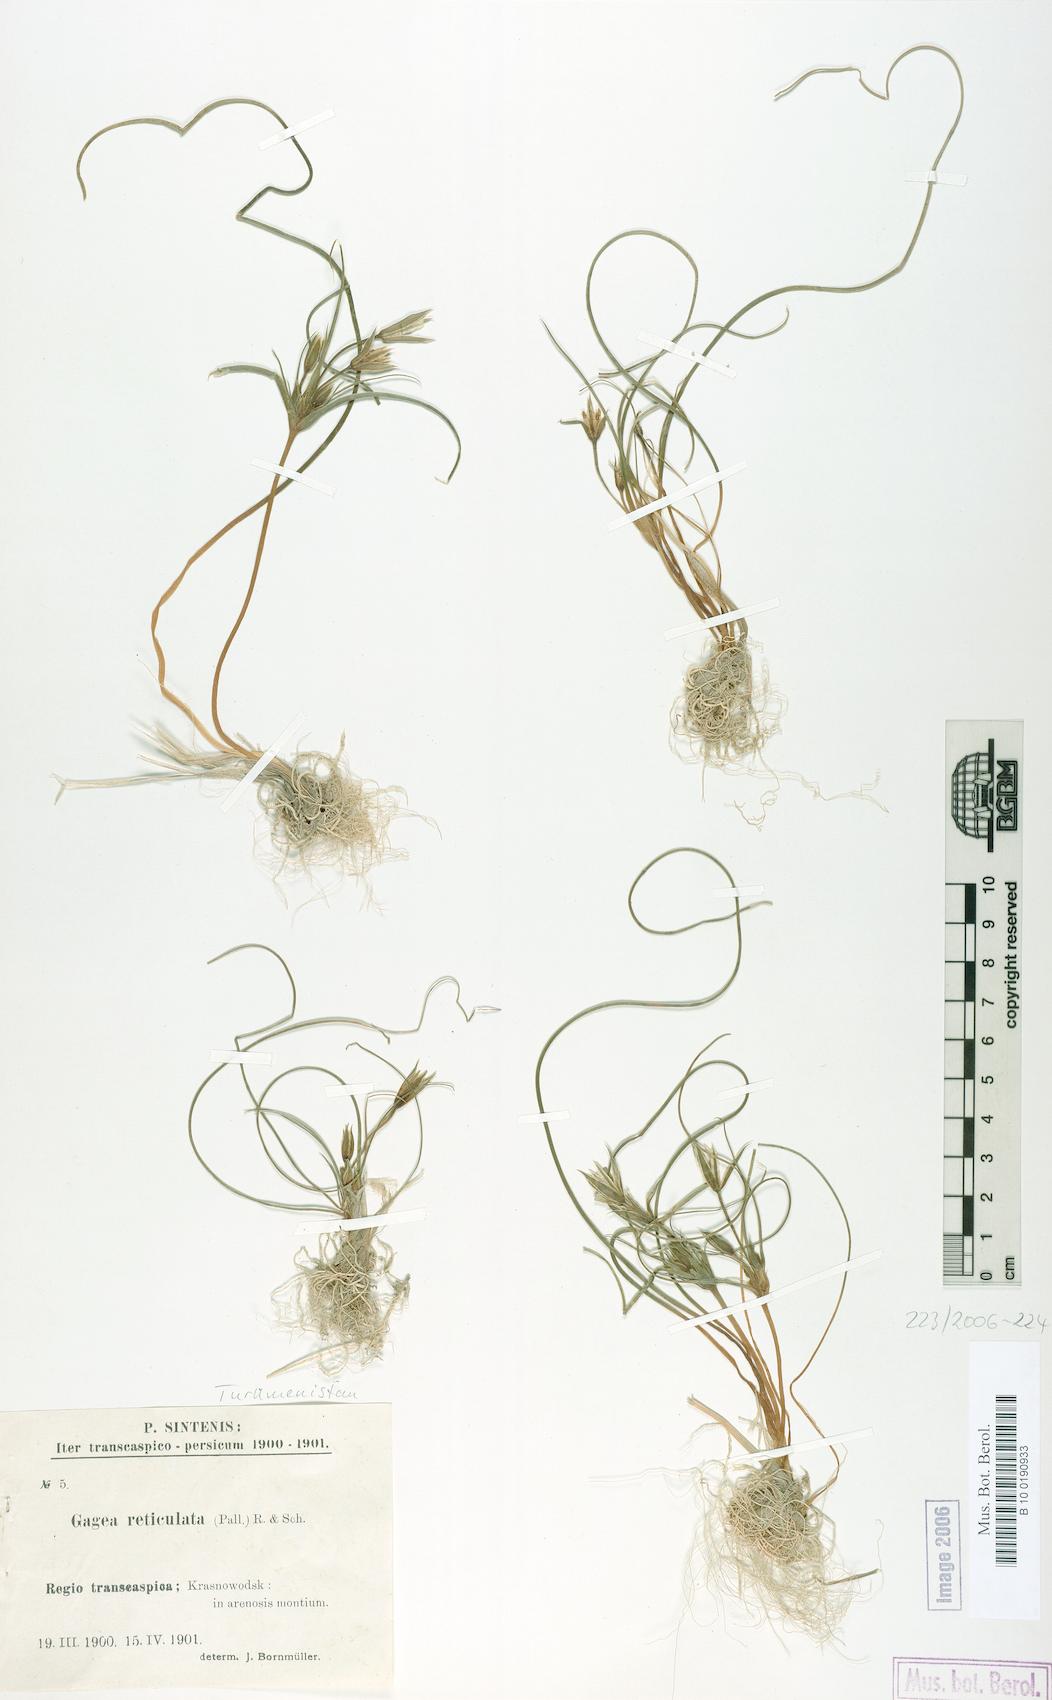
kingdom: Plantae
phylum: Tracheophyta
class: Liliopsida
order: Liliales
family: Liliaceae
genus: Gagea
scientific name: Gagea reticulata
